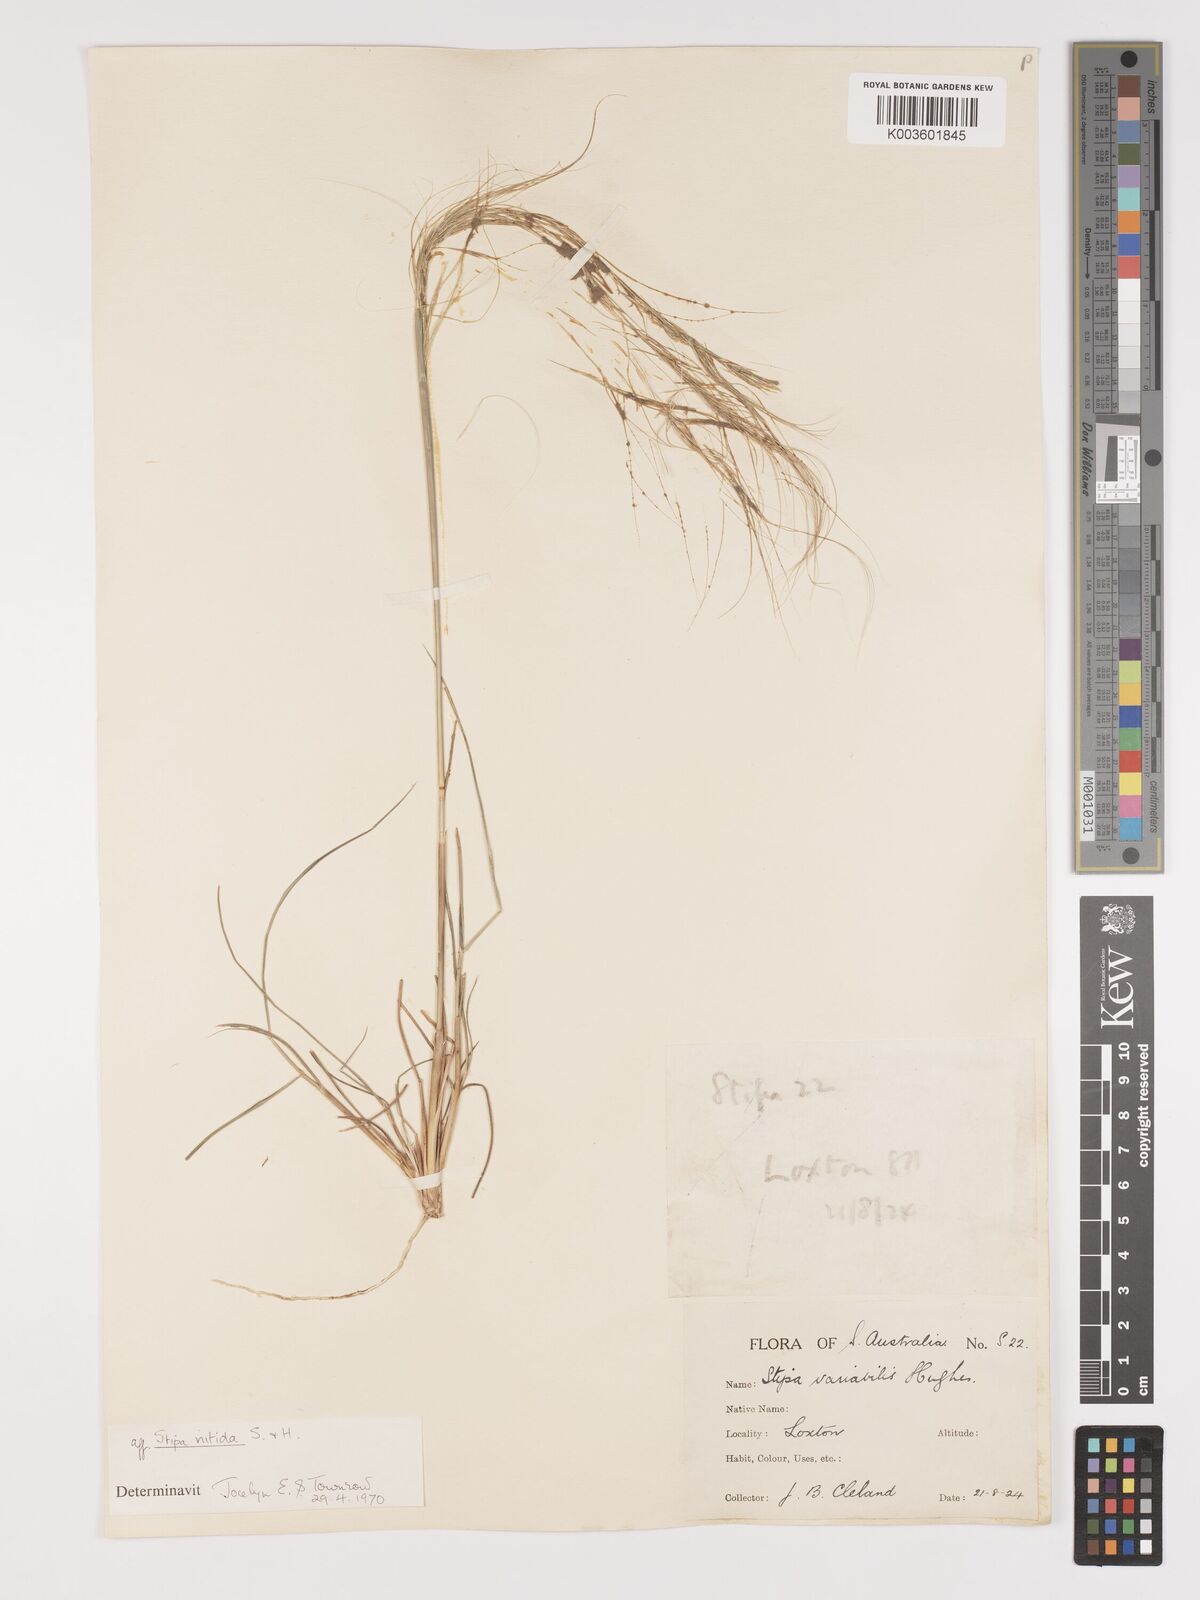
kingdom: Plantae
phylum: Tracheophyta
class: Liliopsida
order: Poales
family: Poaceae
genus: Austrostipa
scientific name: Austrostipa nitida
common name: Balcarra grass
